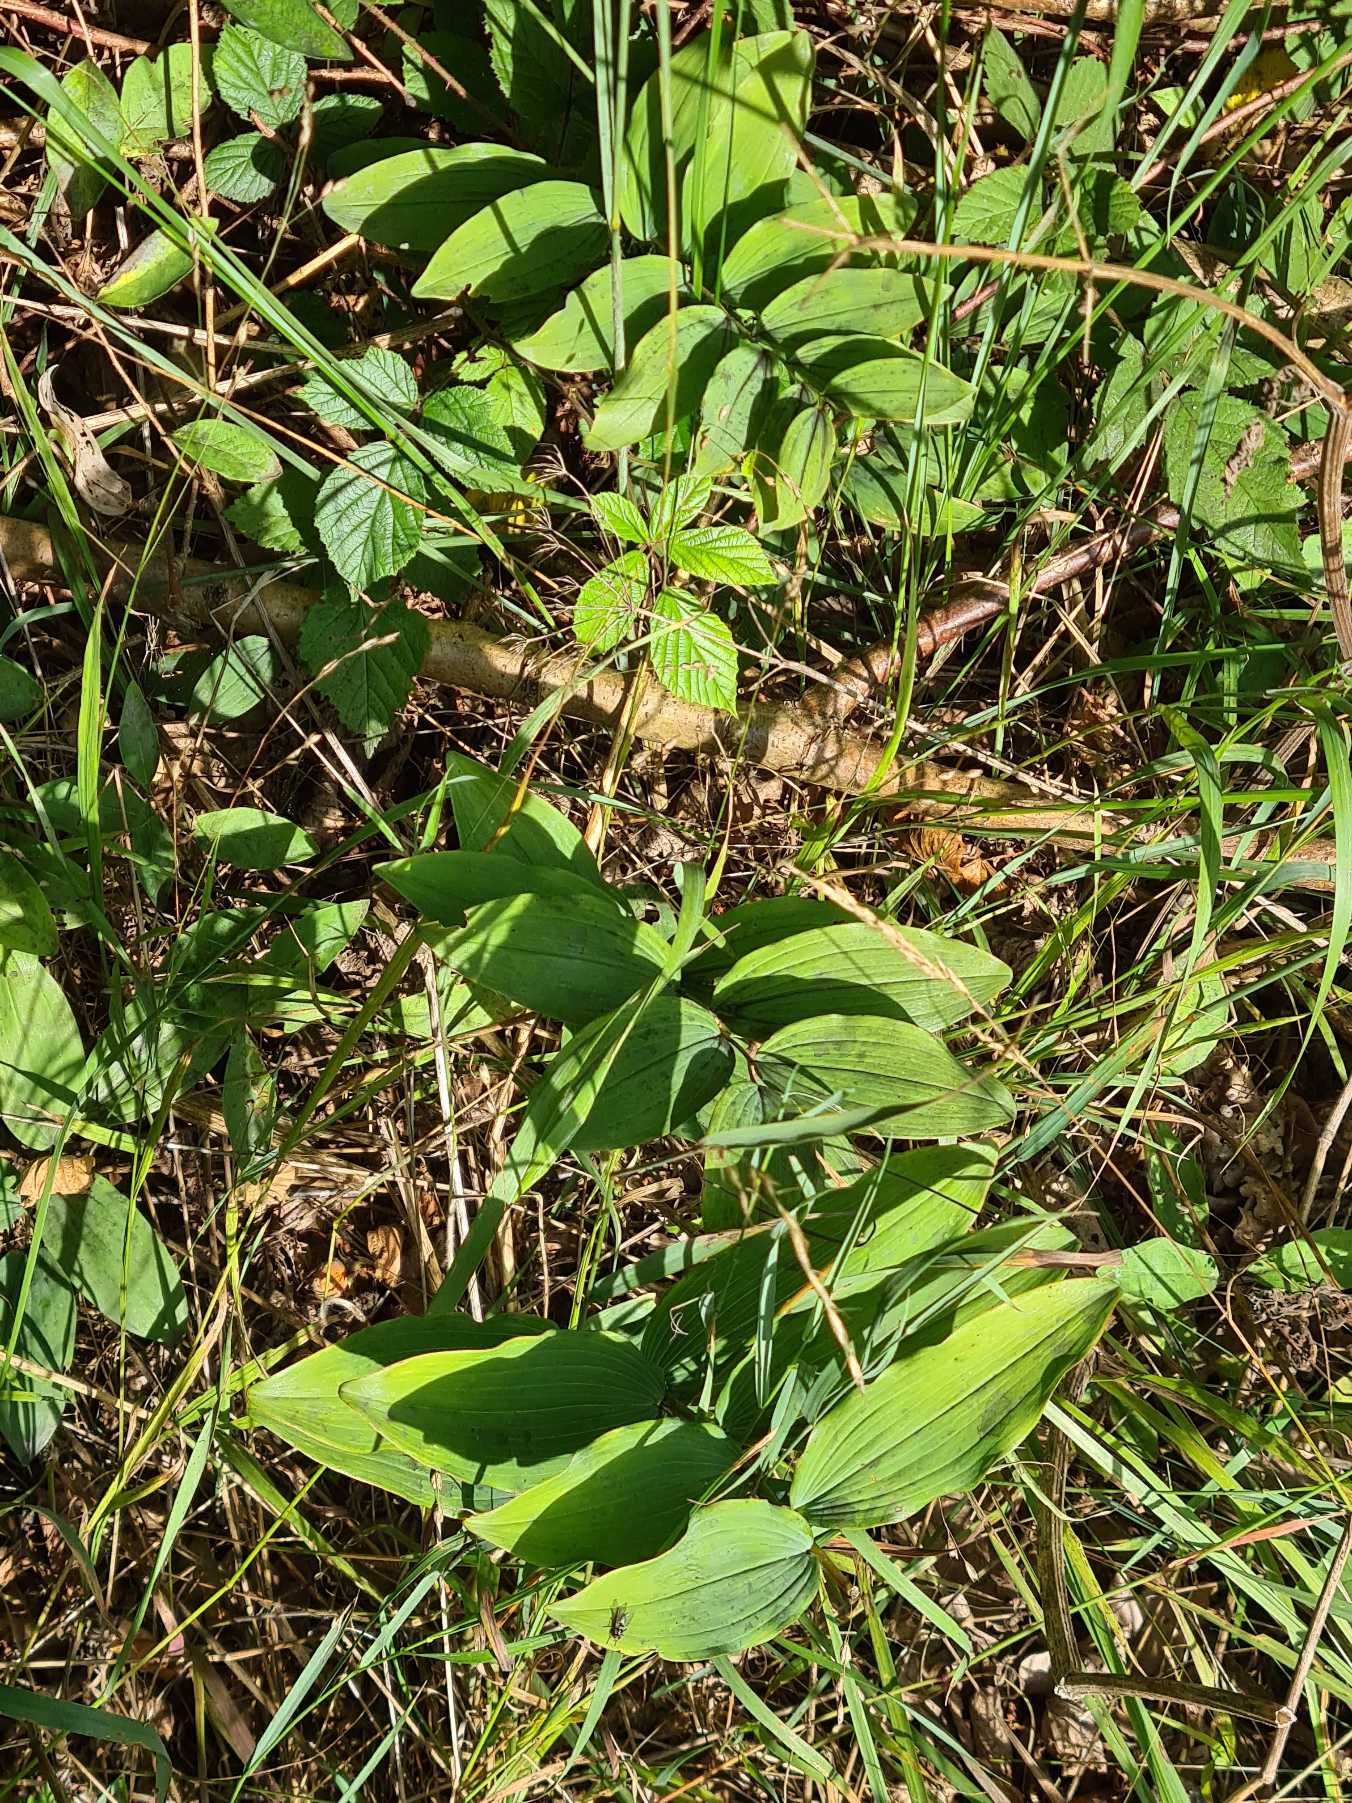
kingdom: Plantae
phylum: Tracheophyta
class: Liliopsida
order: Asparagales
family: Asparagaceae
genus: Polygonatum
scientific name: Polygonatum multiflorum
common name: Stor konval
